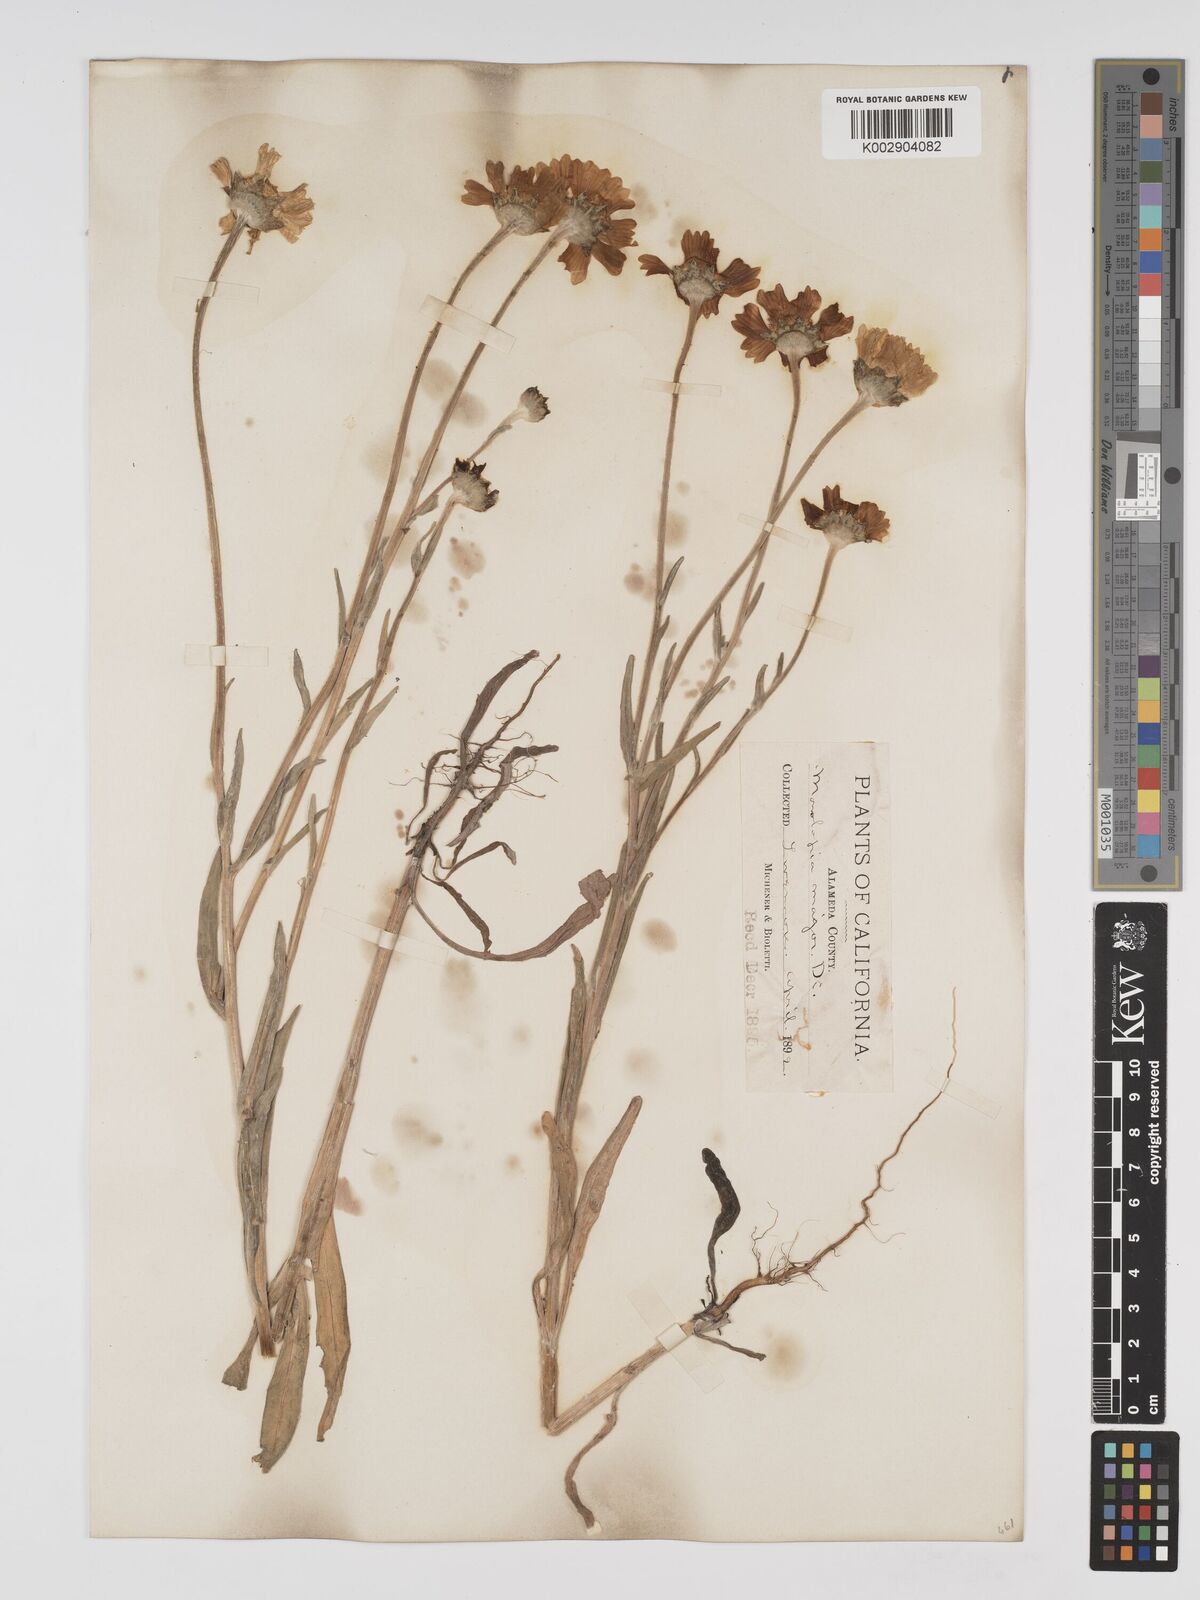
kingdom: Plantae
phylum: Tracheophyta
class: Magnoliopsida
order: Asterales
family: Asteraceae
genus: Monolopia
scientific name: Monolopia major
